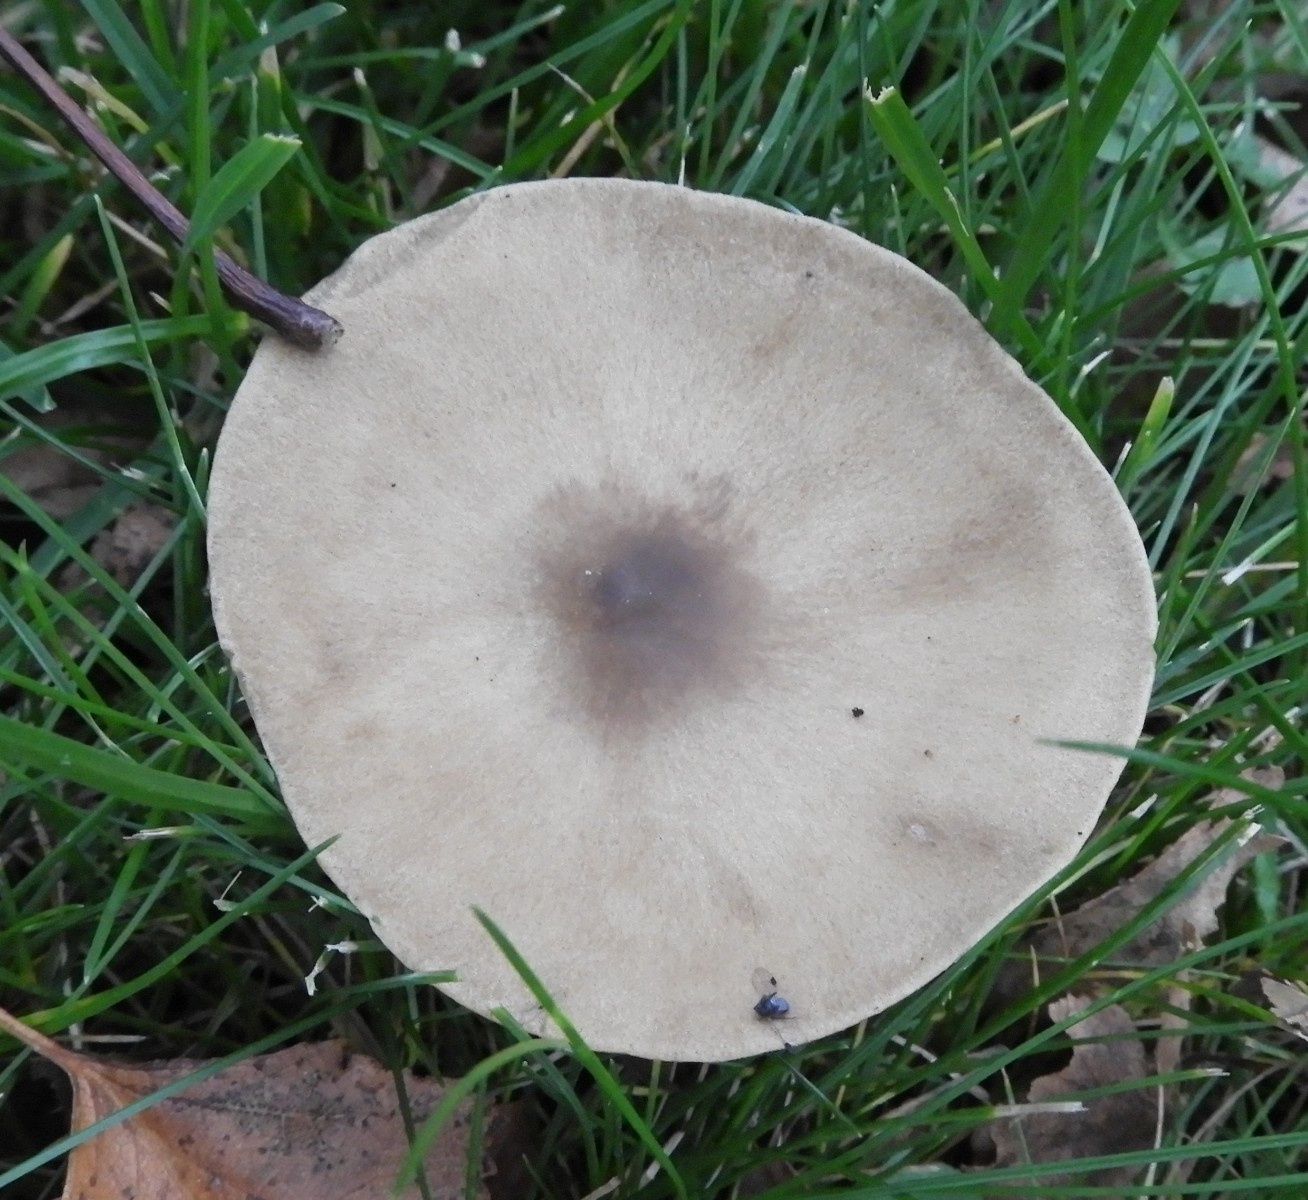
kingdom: Fungi
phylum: Basidiomycota
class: Agaricomycetes
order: Agaricales
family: Tricholomataceae
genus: Melanoleuca
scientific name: Melanoleuca grammopodia
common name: stribestokket munkehat
